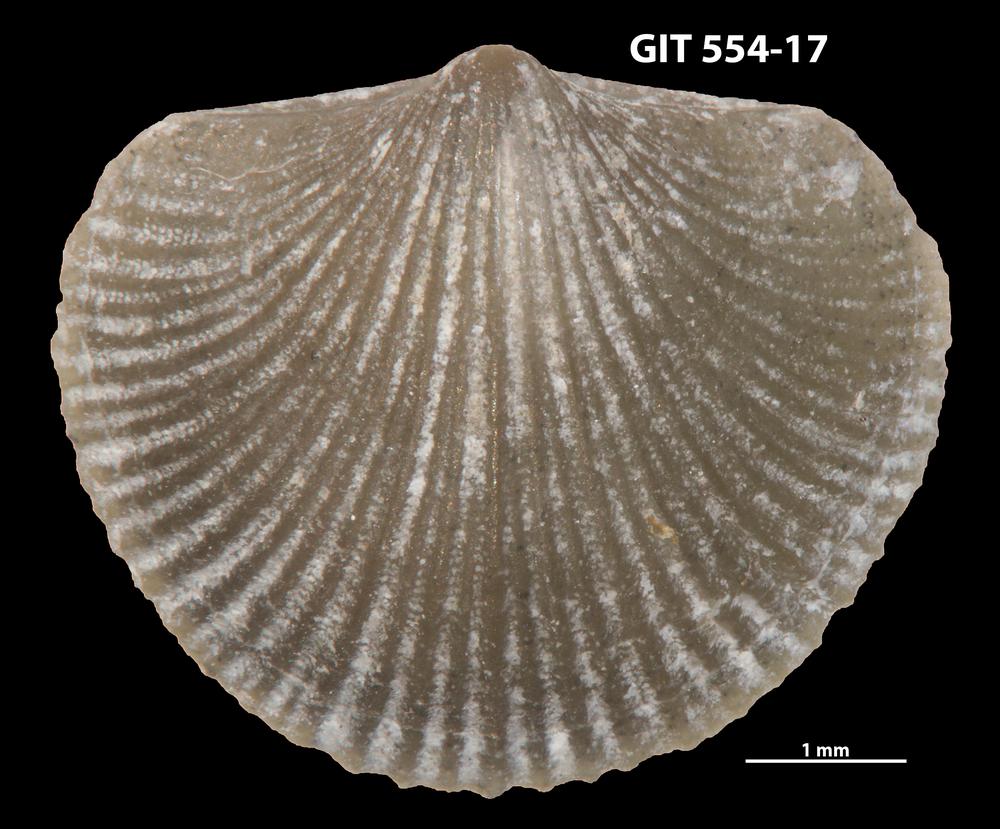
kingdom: Animalia
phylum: Brachiopoda
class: Rhynchonellata
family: Dalmanellidae
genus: Onniella
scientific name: Onniella trigona
